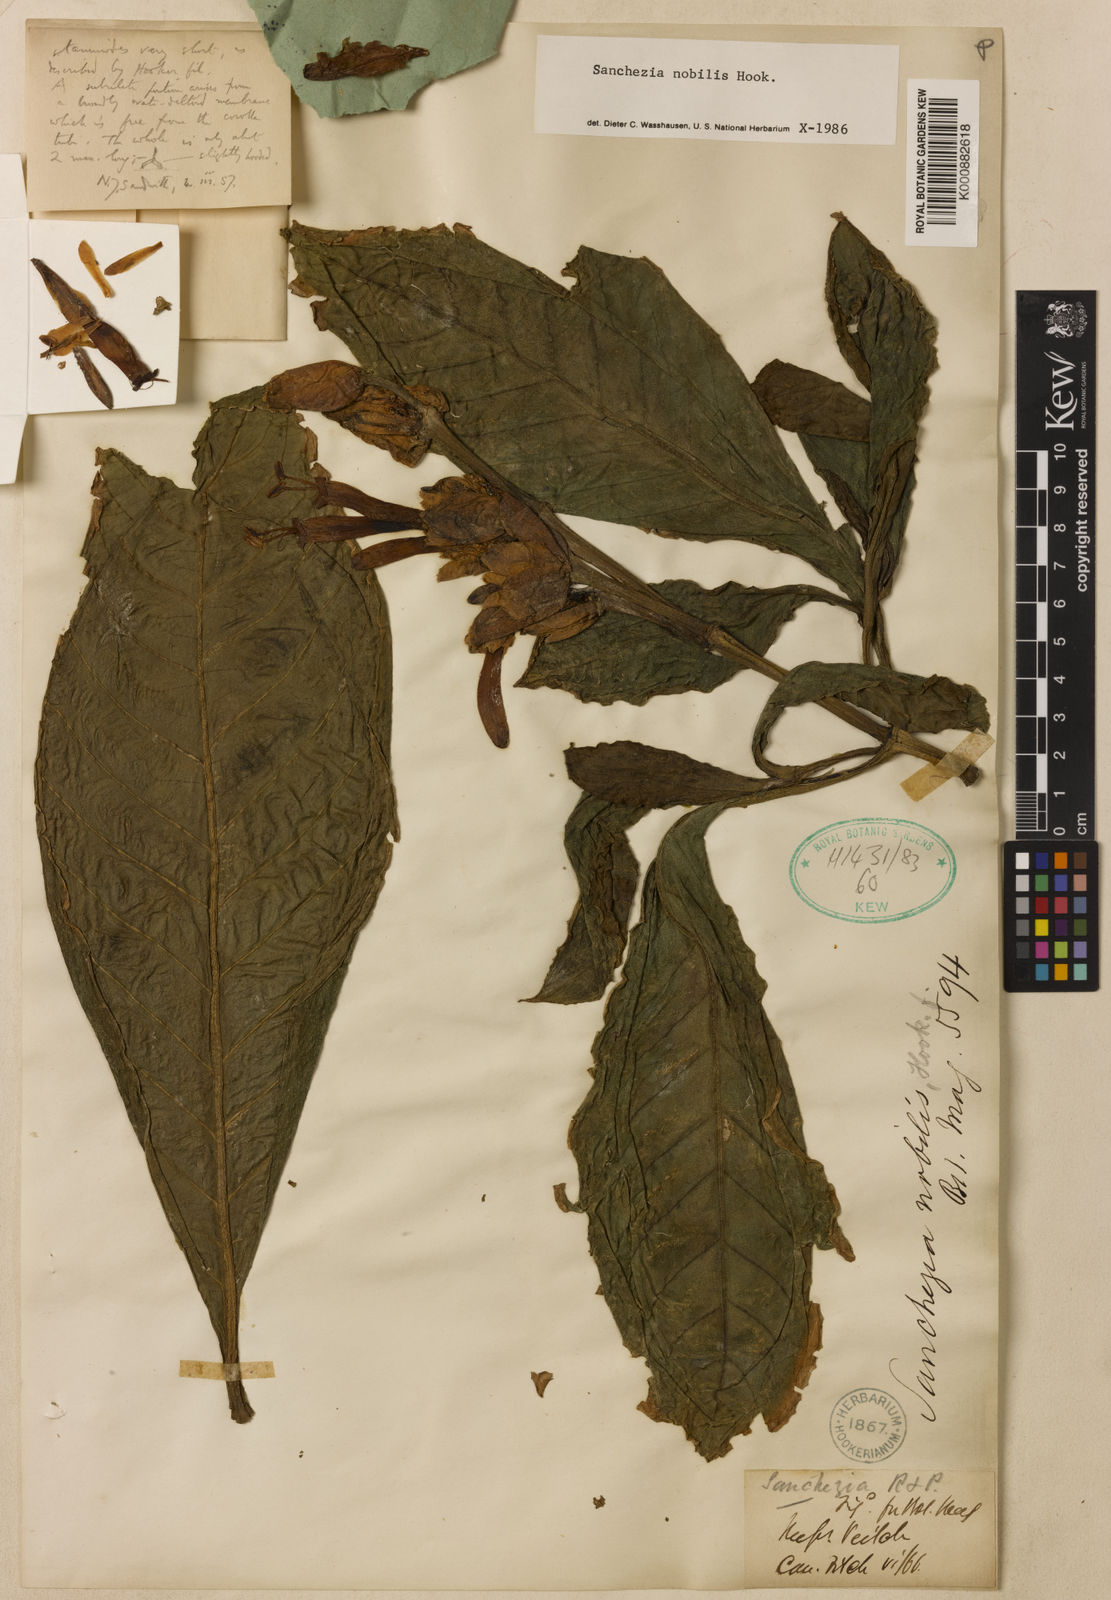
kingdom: Plantae
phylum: Tracheophyta
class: Magnoliopsida
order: Lamiales
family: Acanthaceae
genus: Sanchezia
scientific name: Sanchezia oblonga
